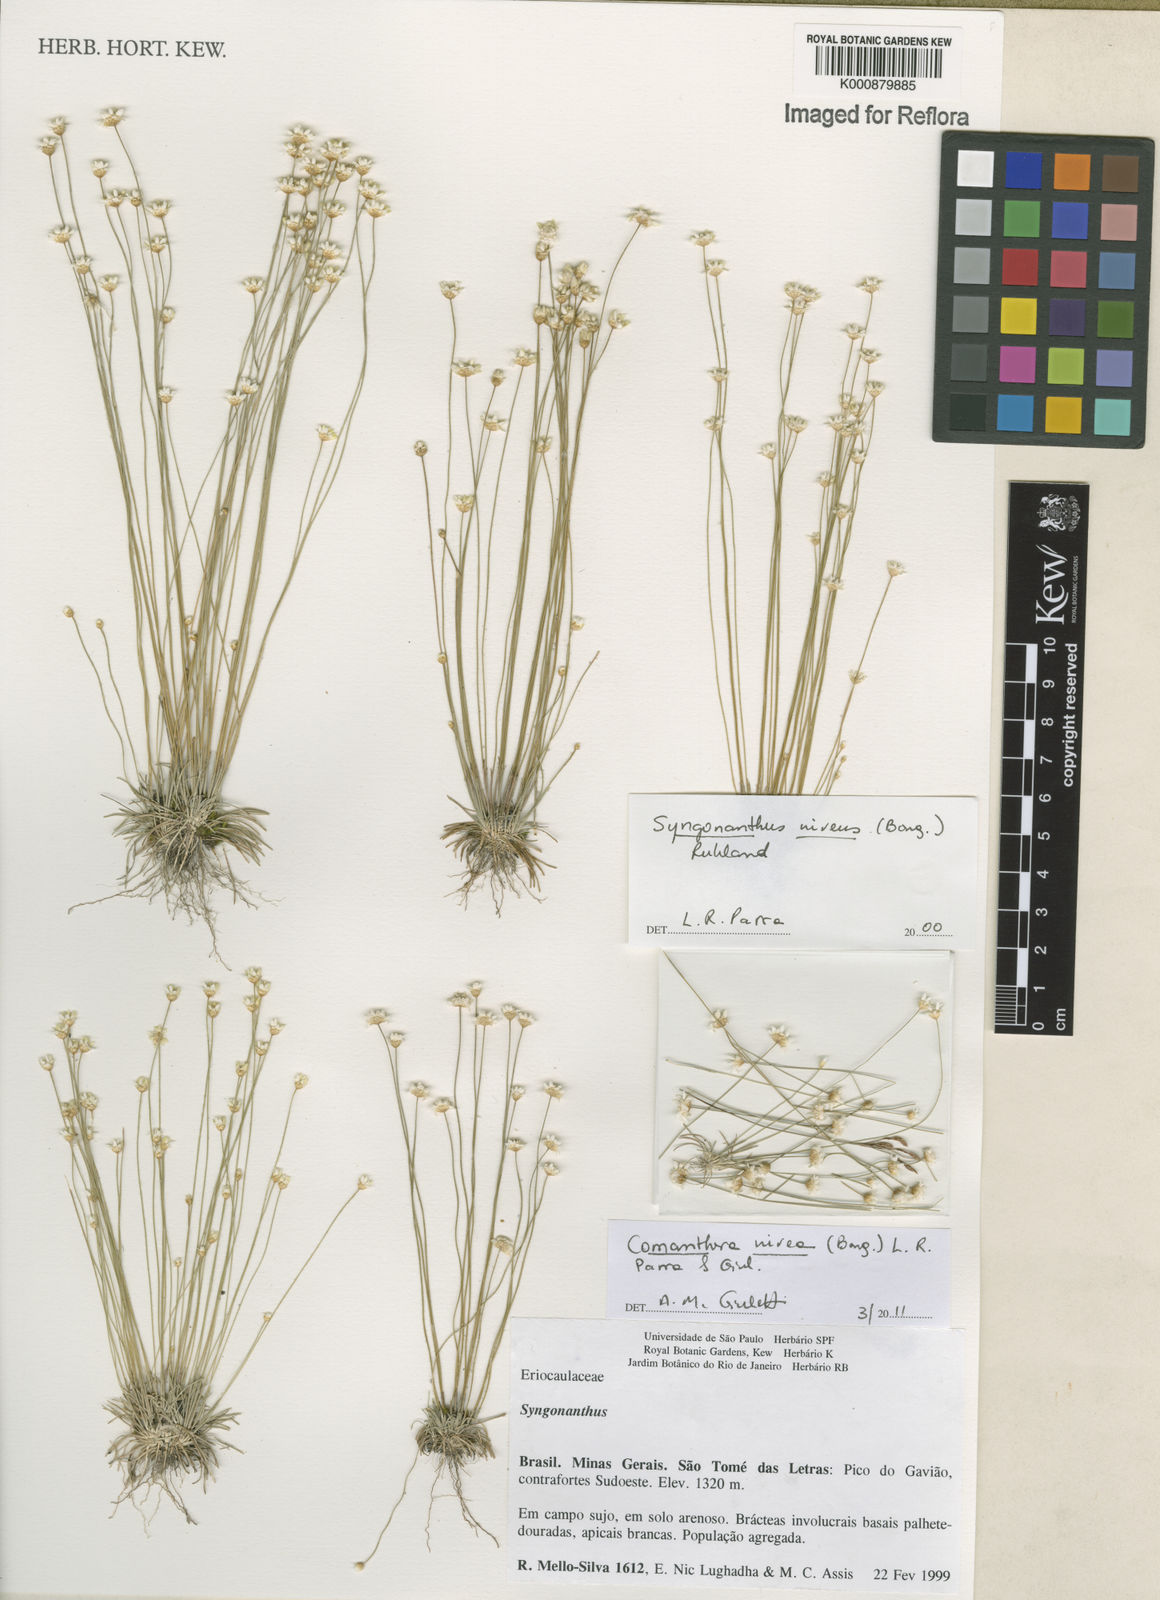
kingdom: Plantae
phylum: Tracheophyta
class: Liliopsida
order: Poales
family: Eriocaulaceae
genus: Comanthera
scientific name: Comanthera nivea
